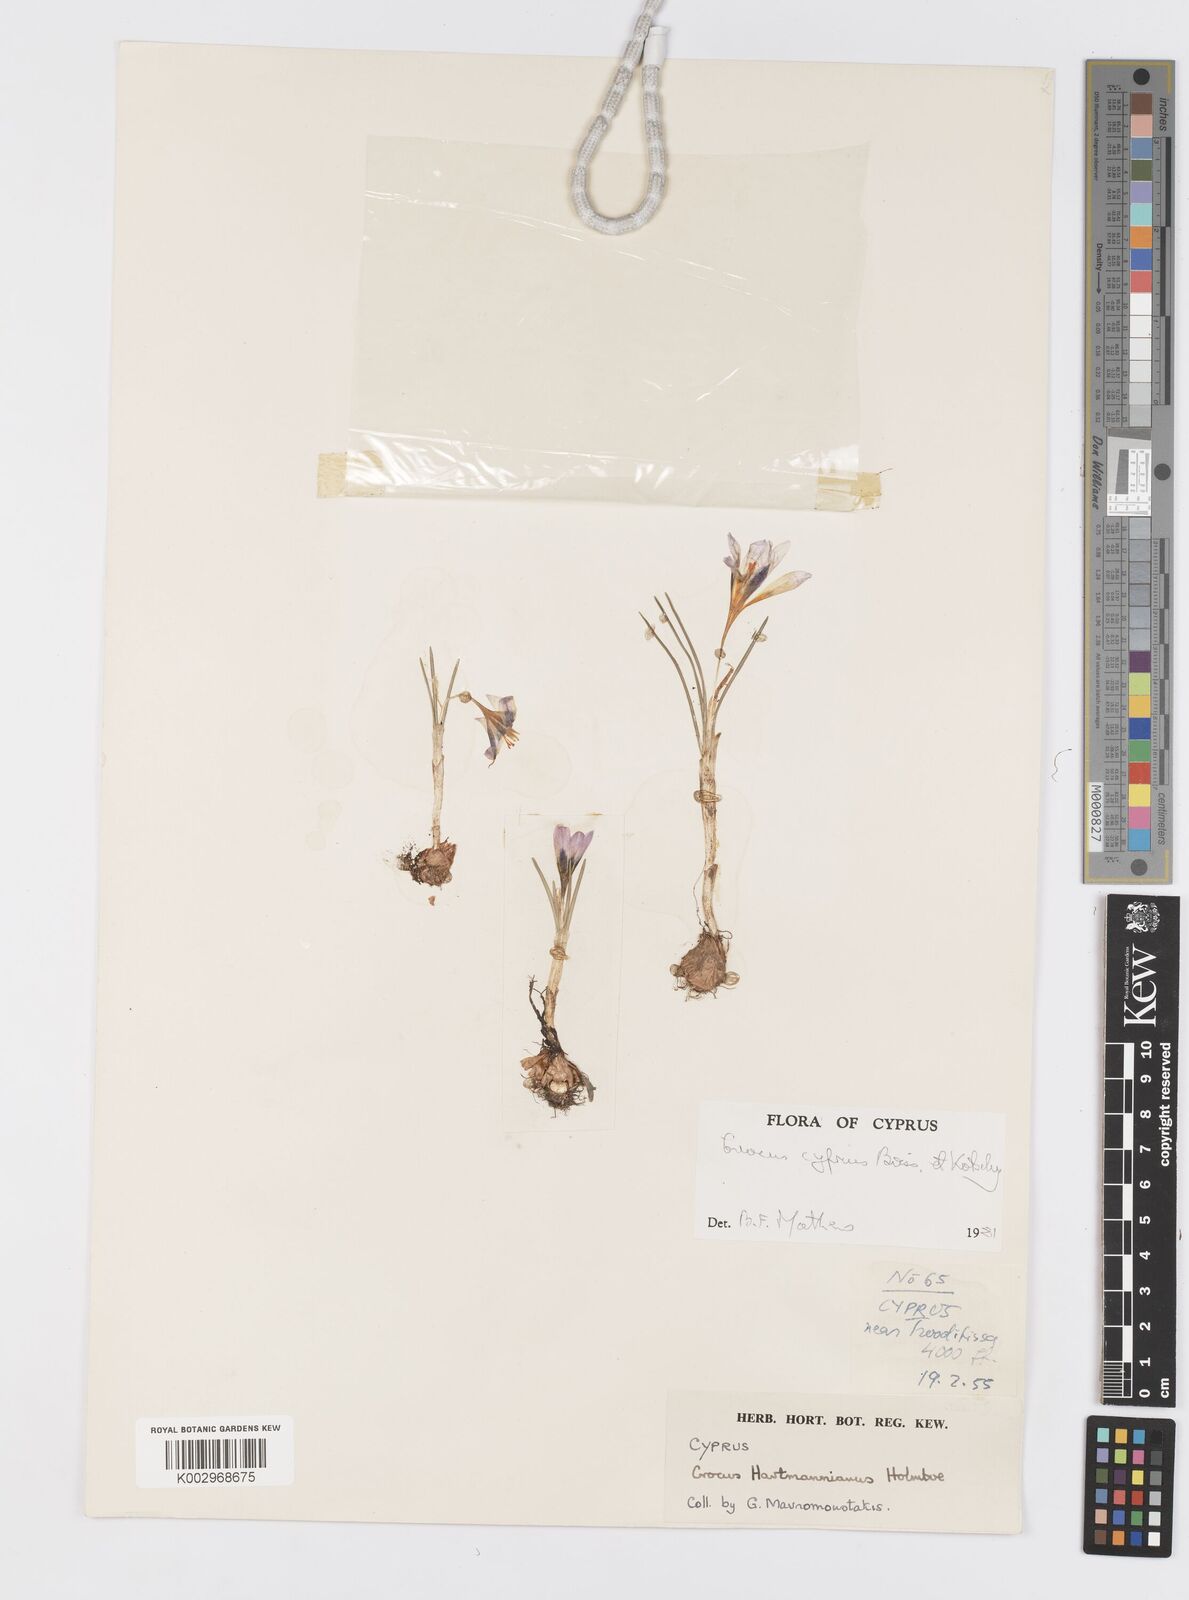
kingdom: Plantae
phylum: Tracheophyta
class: Liliopsida
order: Asparagales
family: Iridaceae
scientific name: Iridaceae
